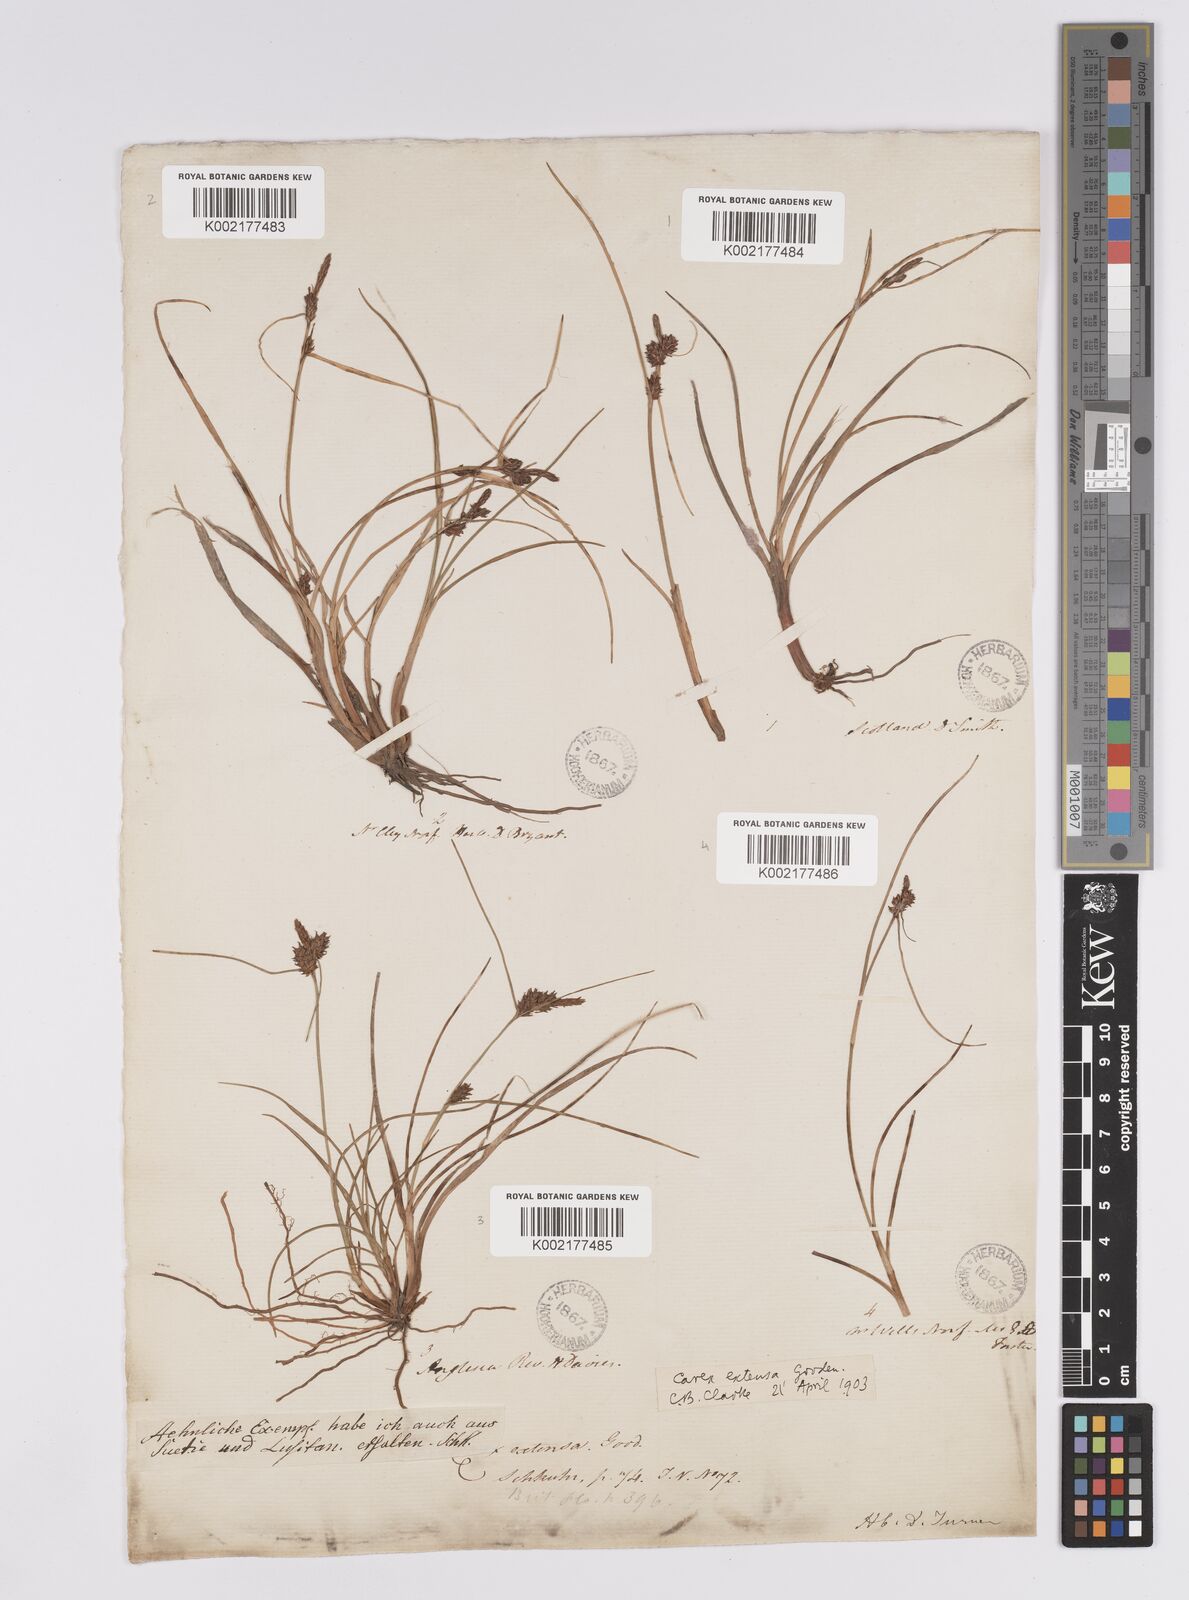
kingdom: Plantae
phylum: Tracheophyta
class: Liliopsida
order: Poales
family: Cyperaceae
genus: Carex
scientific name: Carex extensa
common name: Long-bracted sedge
